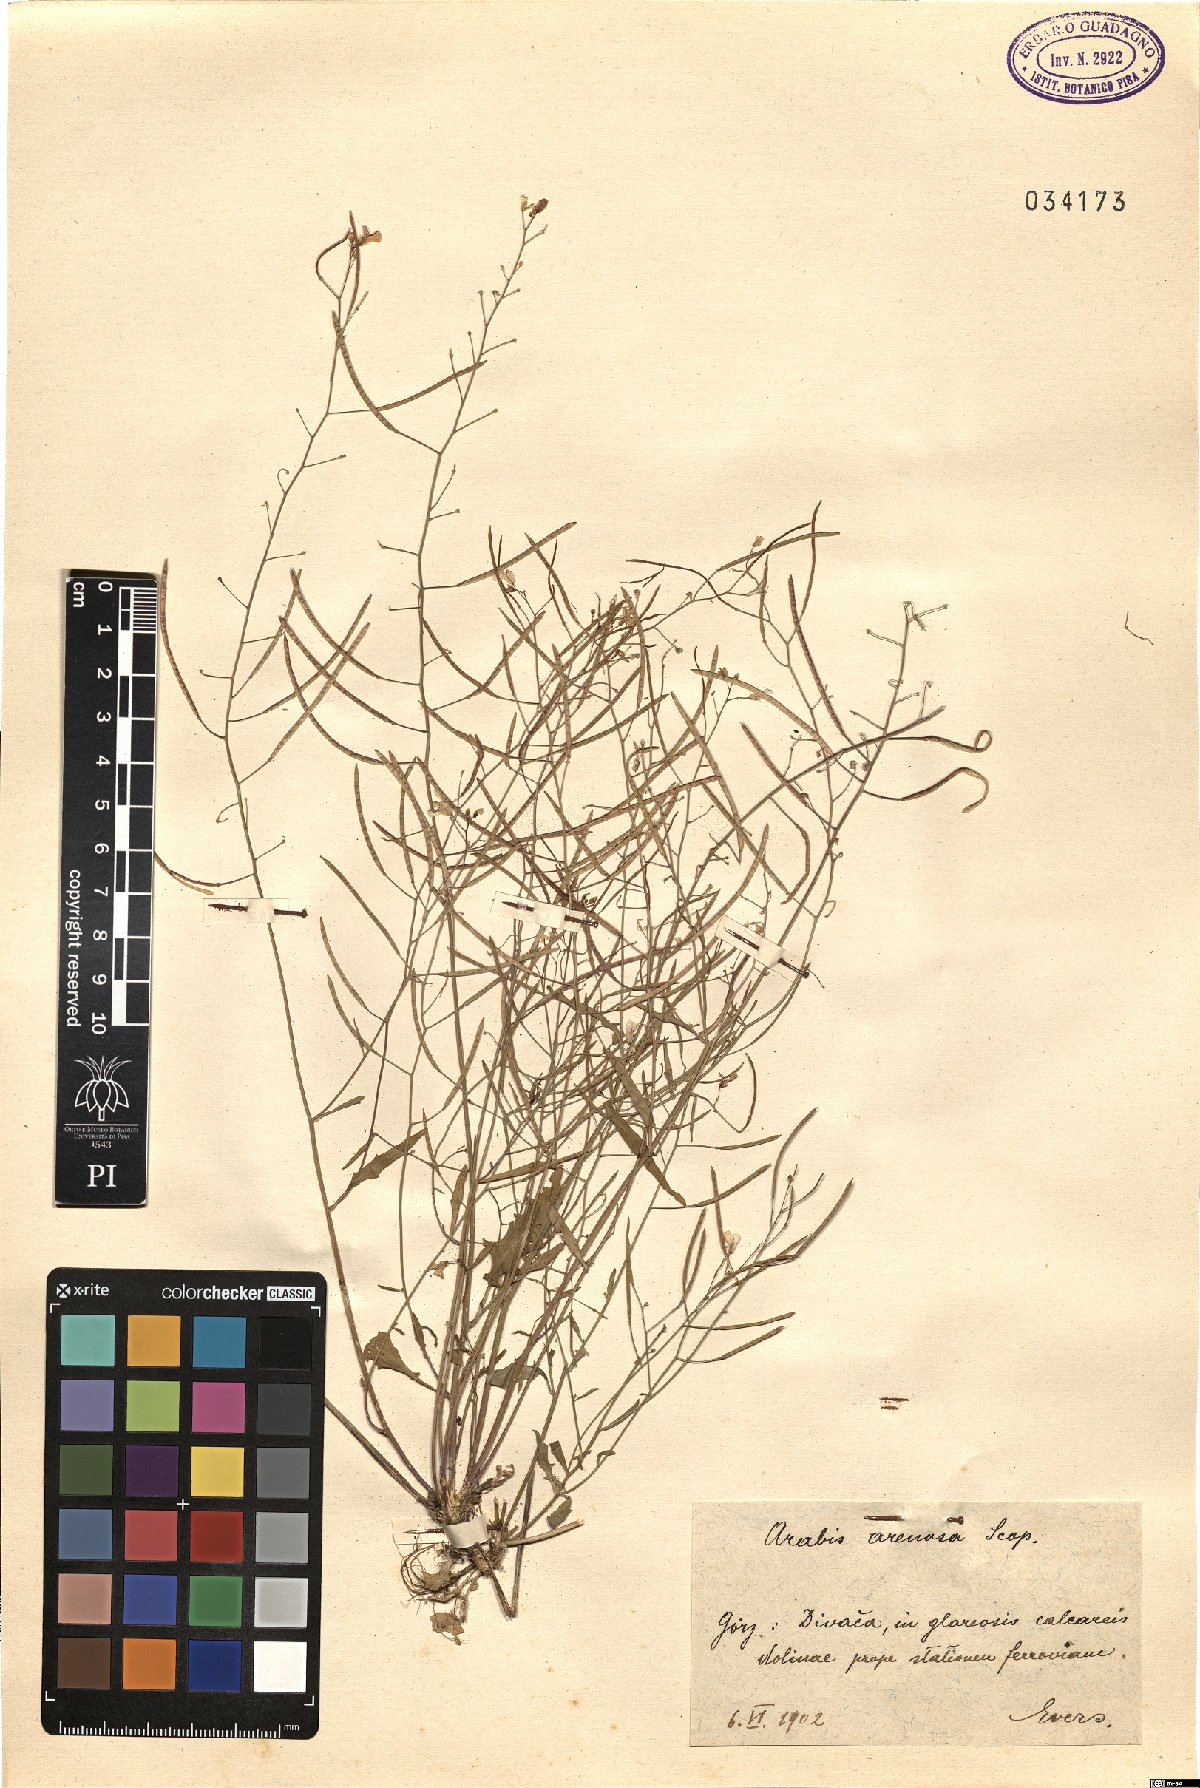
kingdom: Plantae
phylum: Tracheophyta
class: Magnoliopsida
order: Brassicales
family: Brassicaceae
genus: Arabidopsis
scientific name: Arabidopsis arenosa
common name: Sand rock-cress
